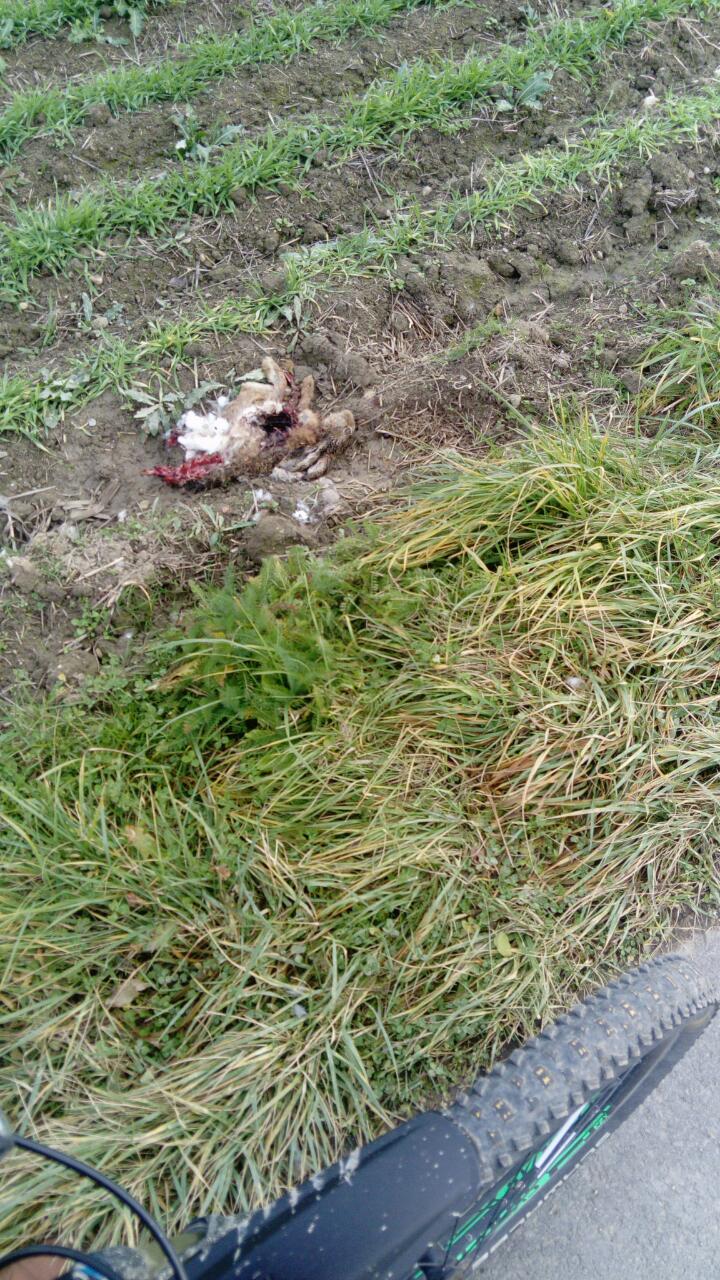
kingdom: Animalia
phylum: Chordata
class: Mammalia
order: Lagomorpha
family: Leporidae
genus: Lepus
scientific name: Lepus europaeus
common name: European hare
